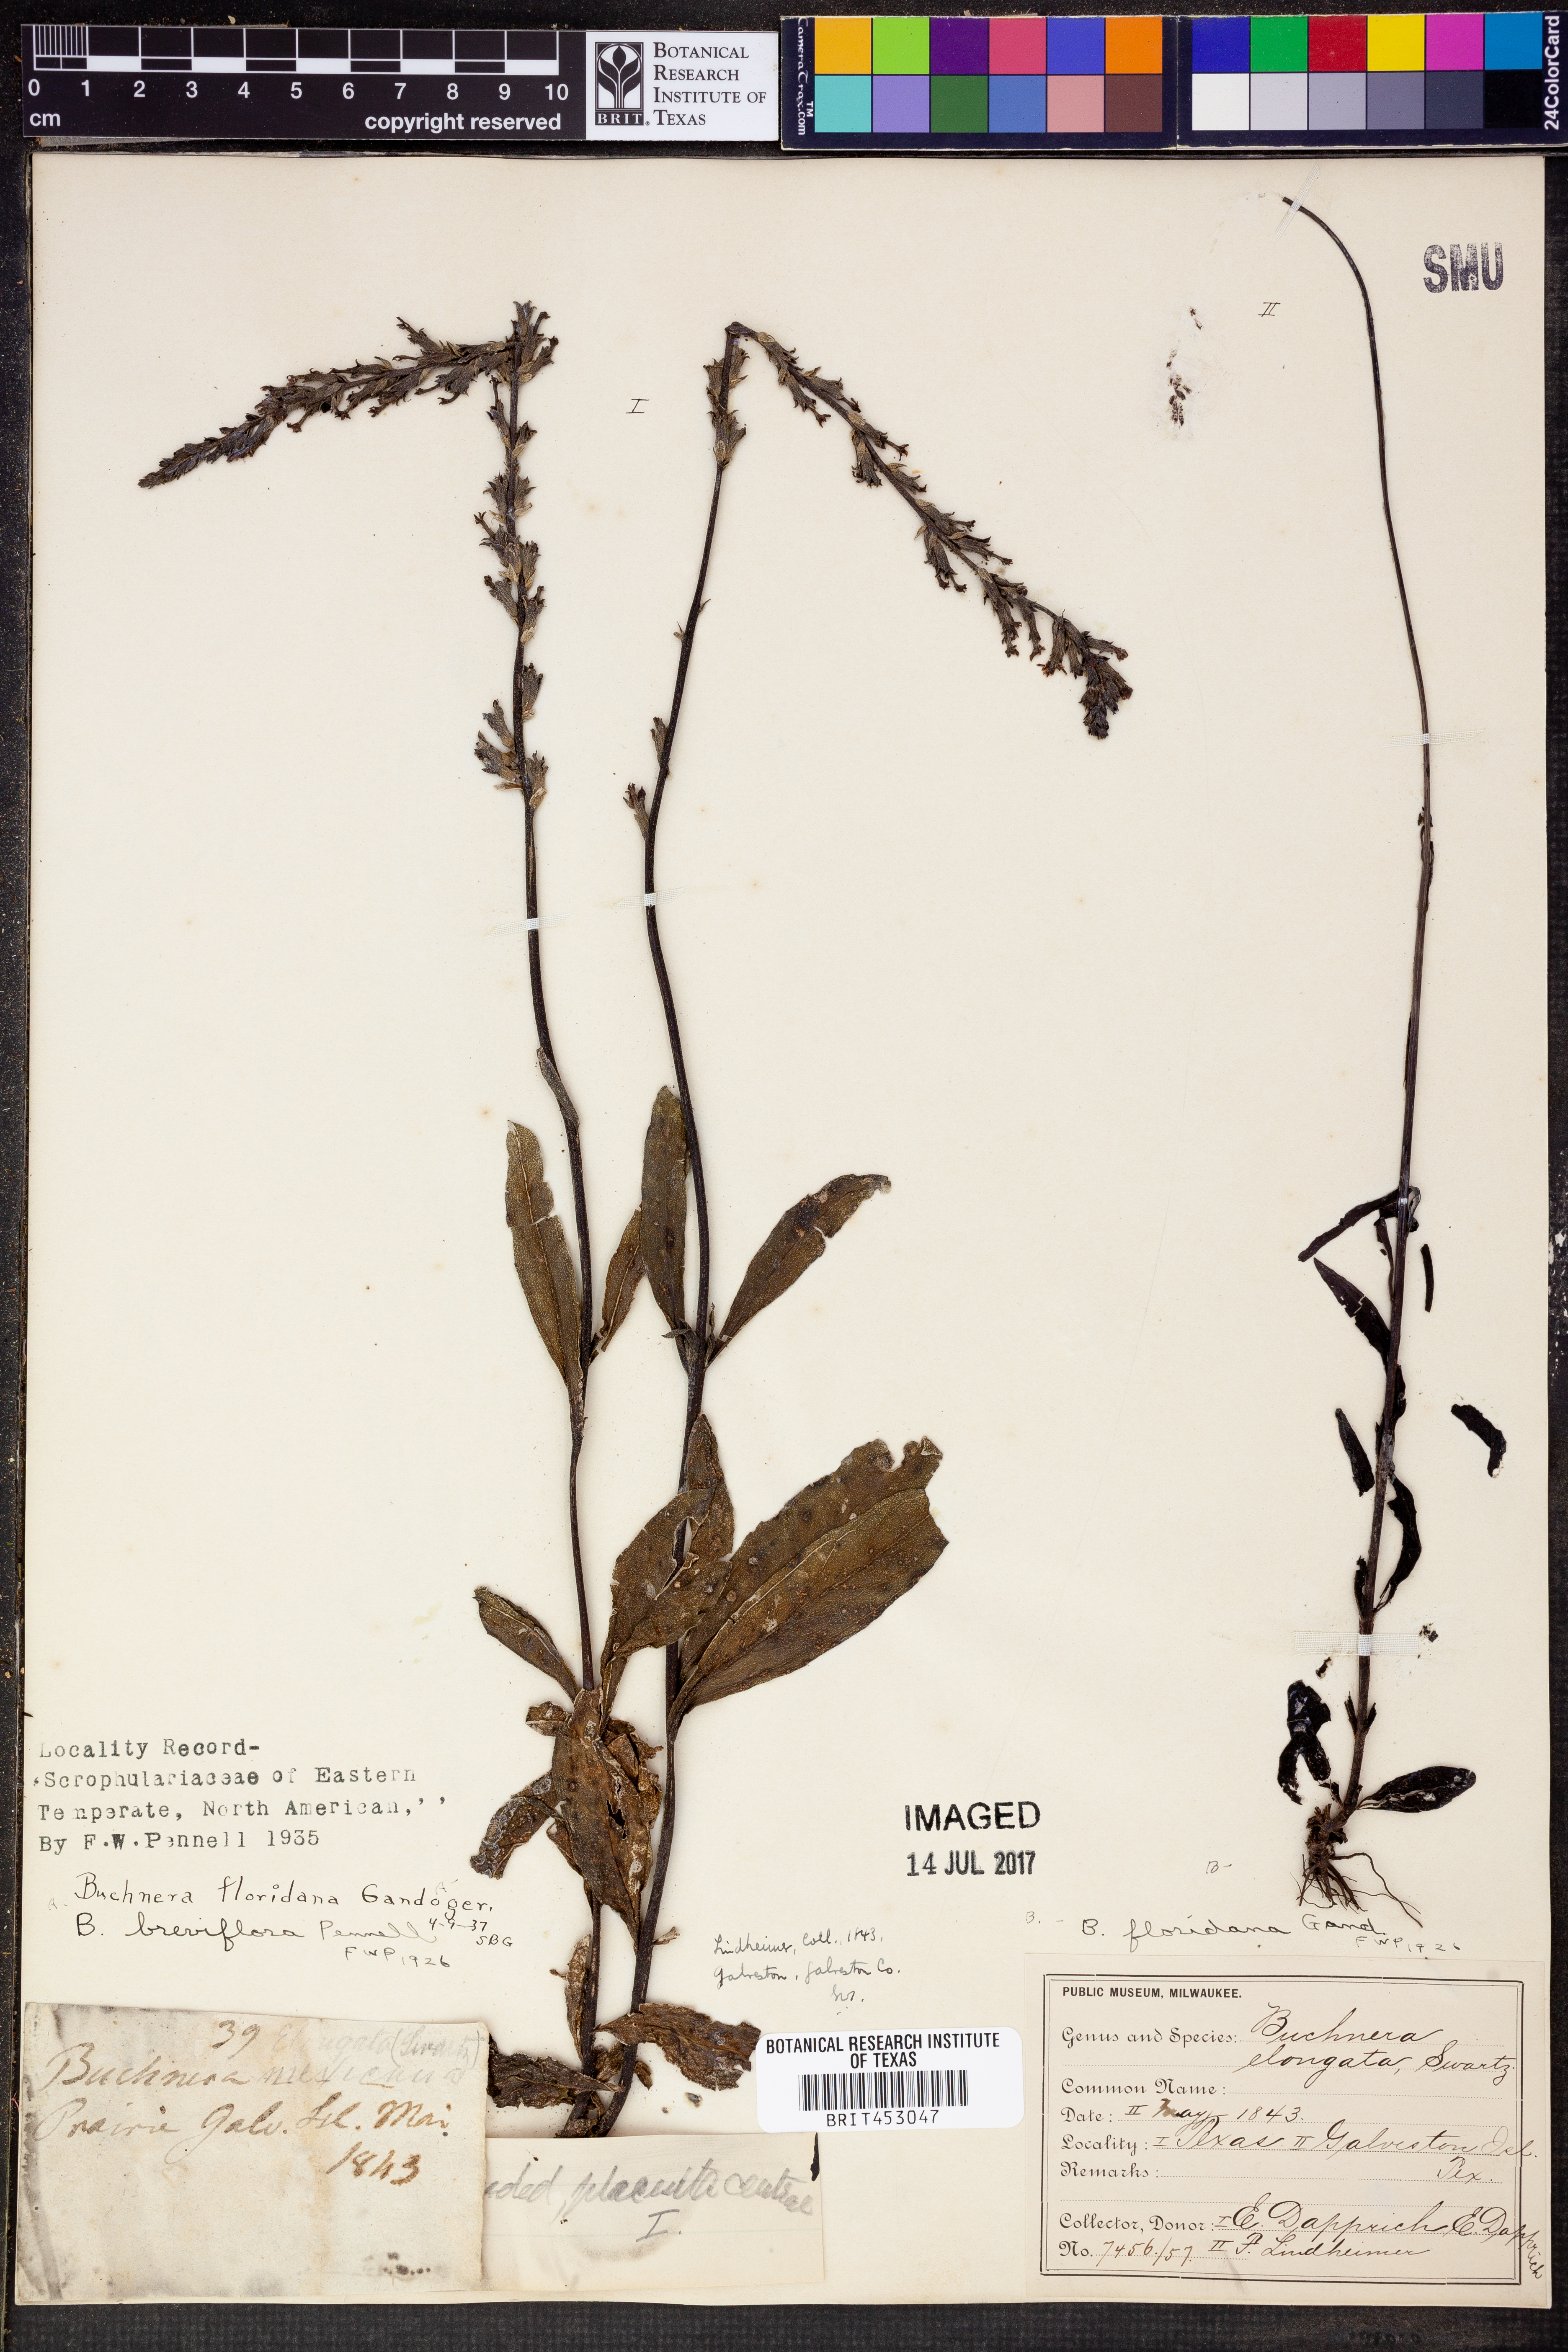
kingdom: Plantae
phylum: Tracheophyta
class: Magnoliopsida
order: Lamiales
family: Orobanchaceae
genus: Buchnera
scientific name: Buchnera floridana
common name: Florida bluehearts
